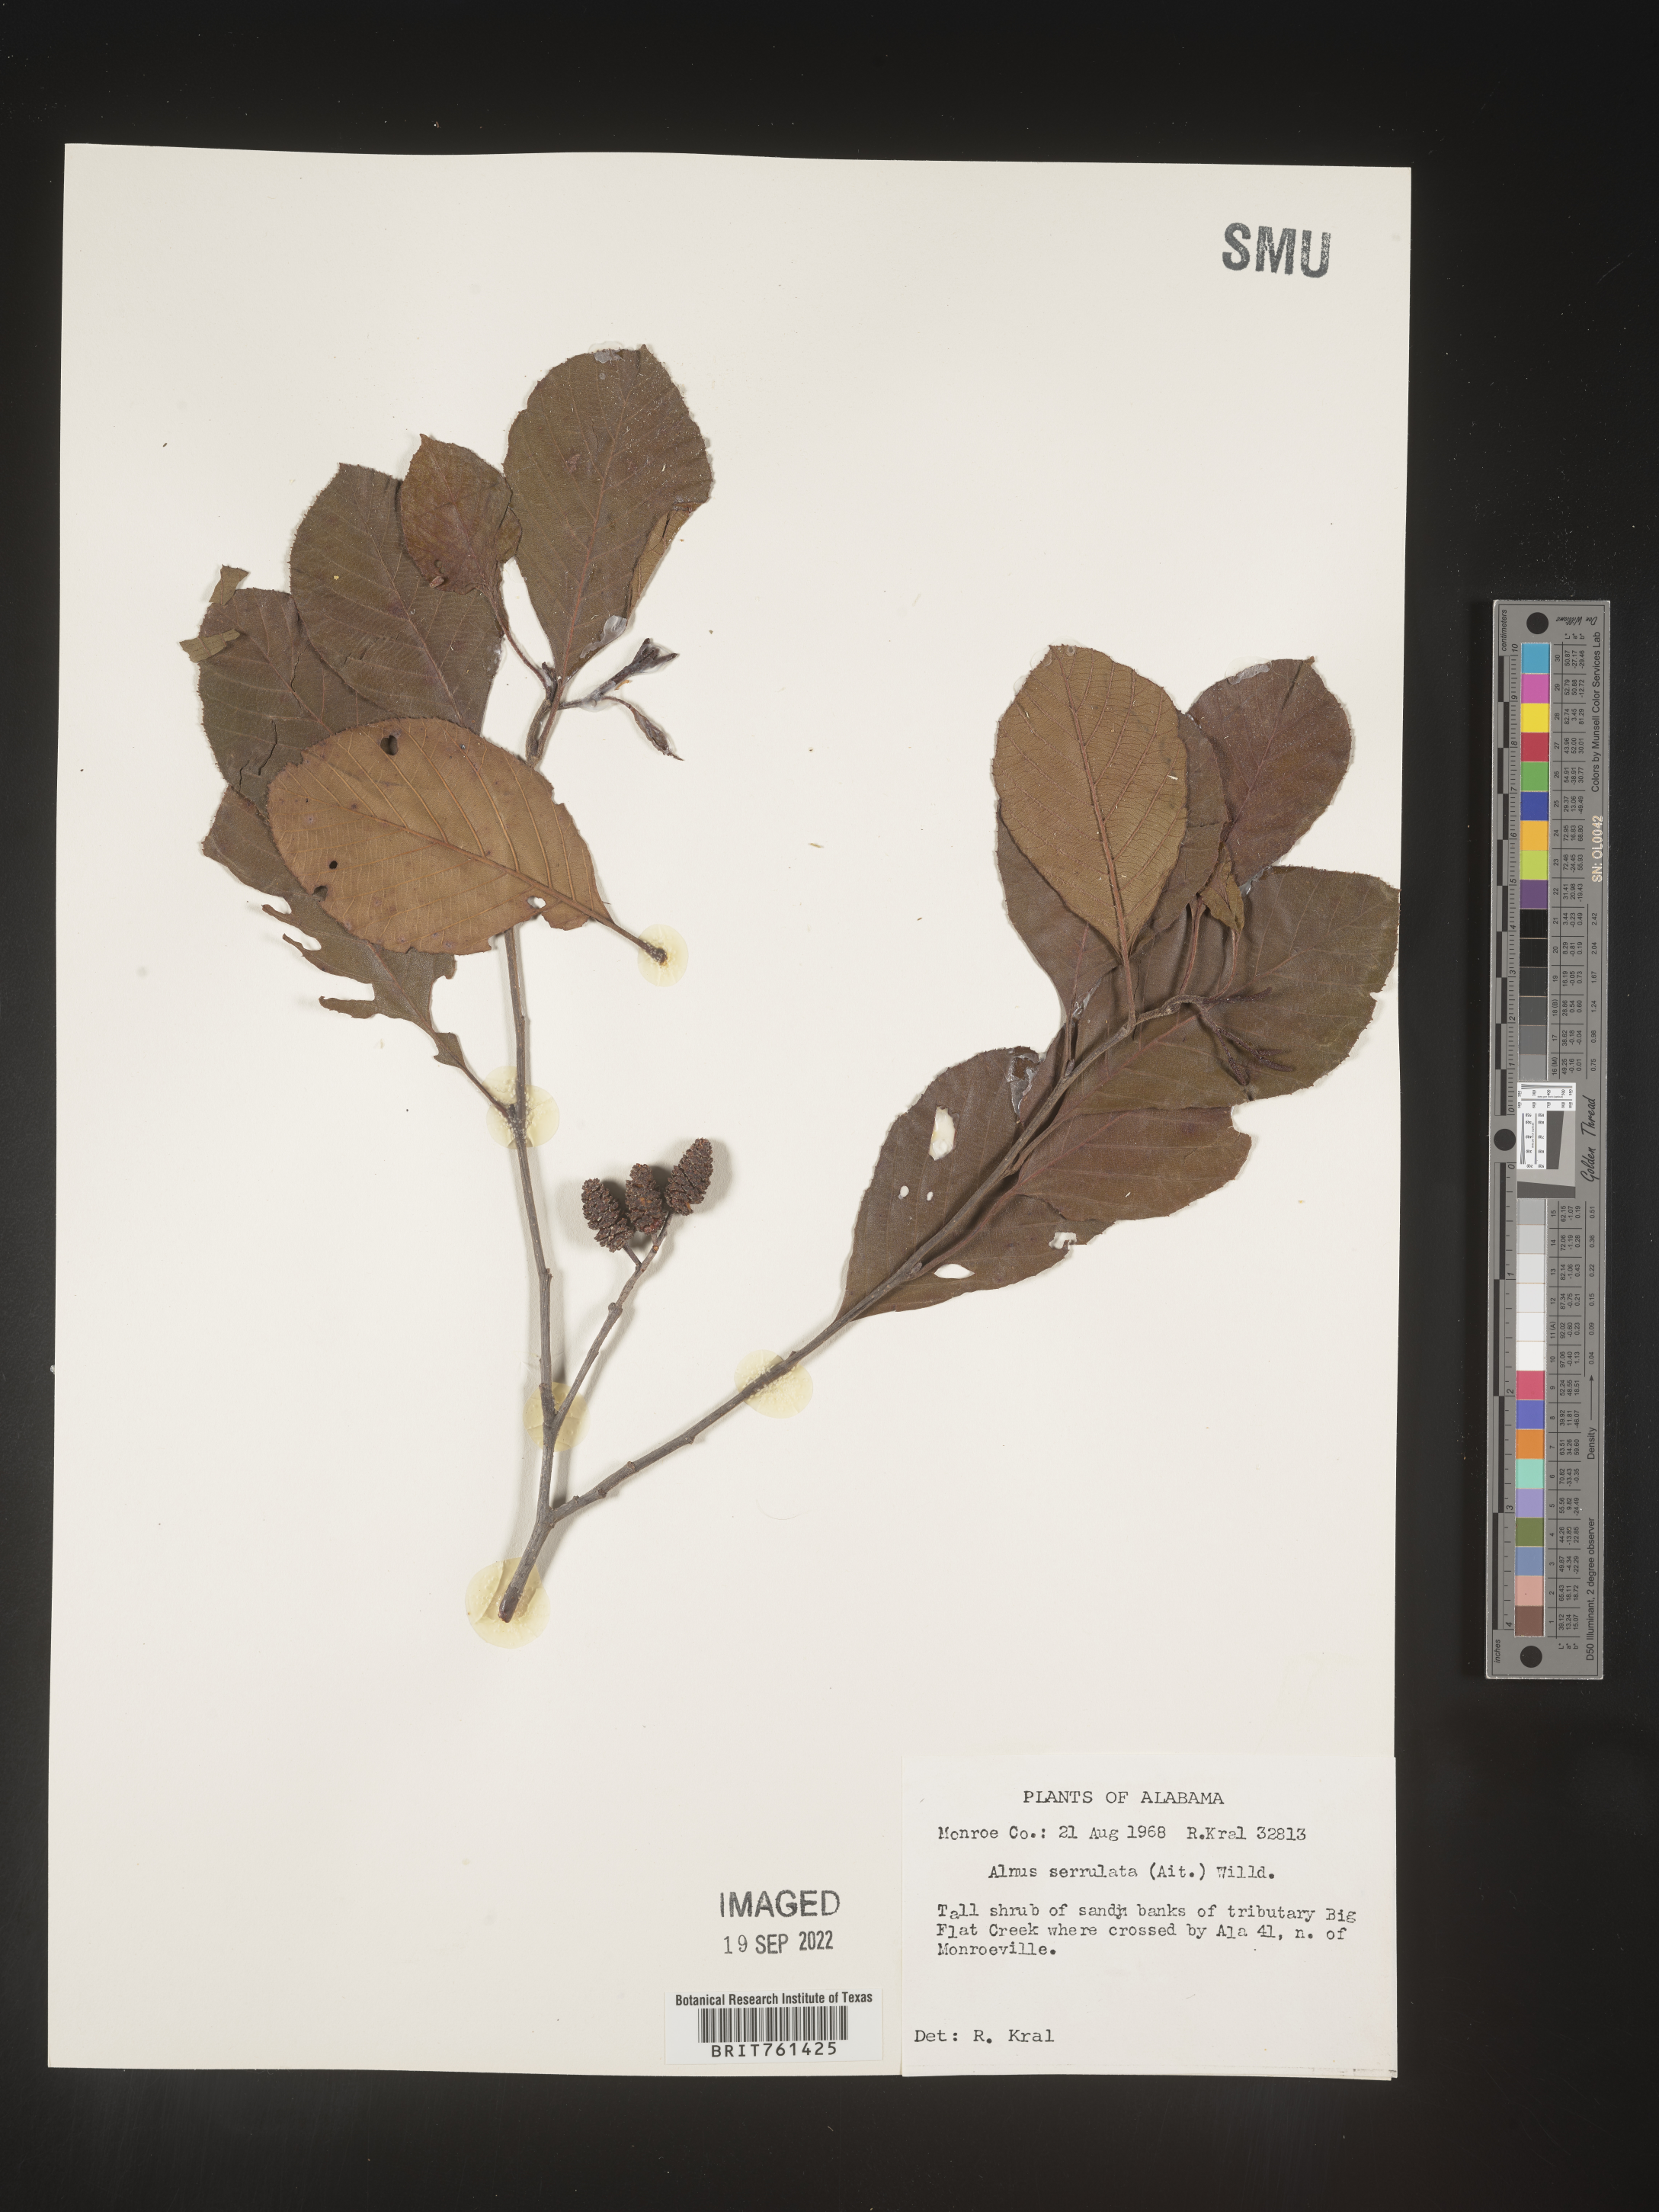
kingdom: Plantae
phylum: Tracheophyta
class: Magnoliopsida
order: Fagales
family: Betulaceae
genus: Alnus
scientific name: Alnus serrulata
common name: Hazel alder
